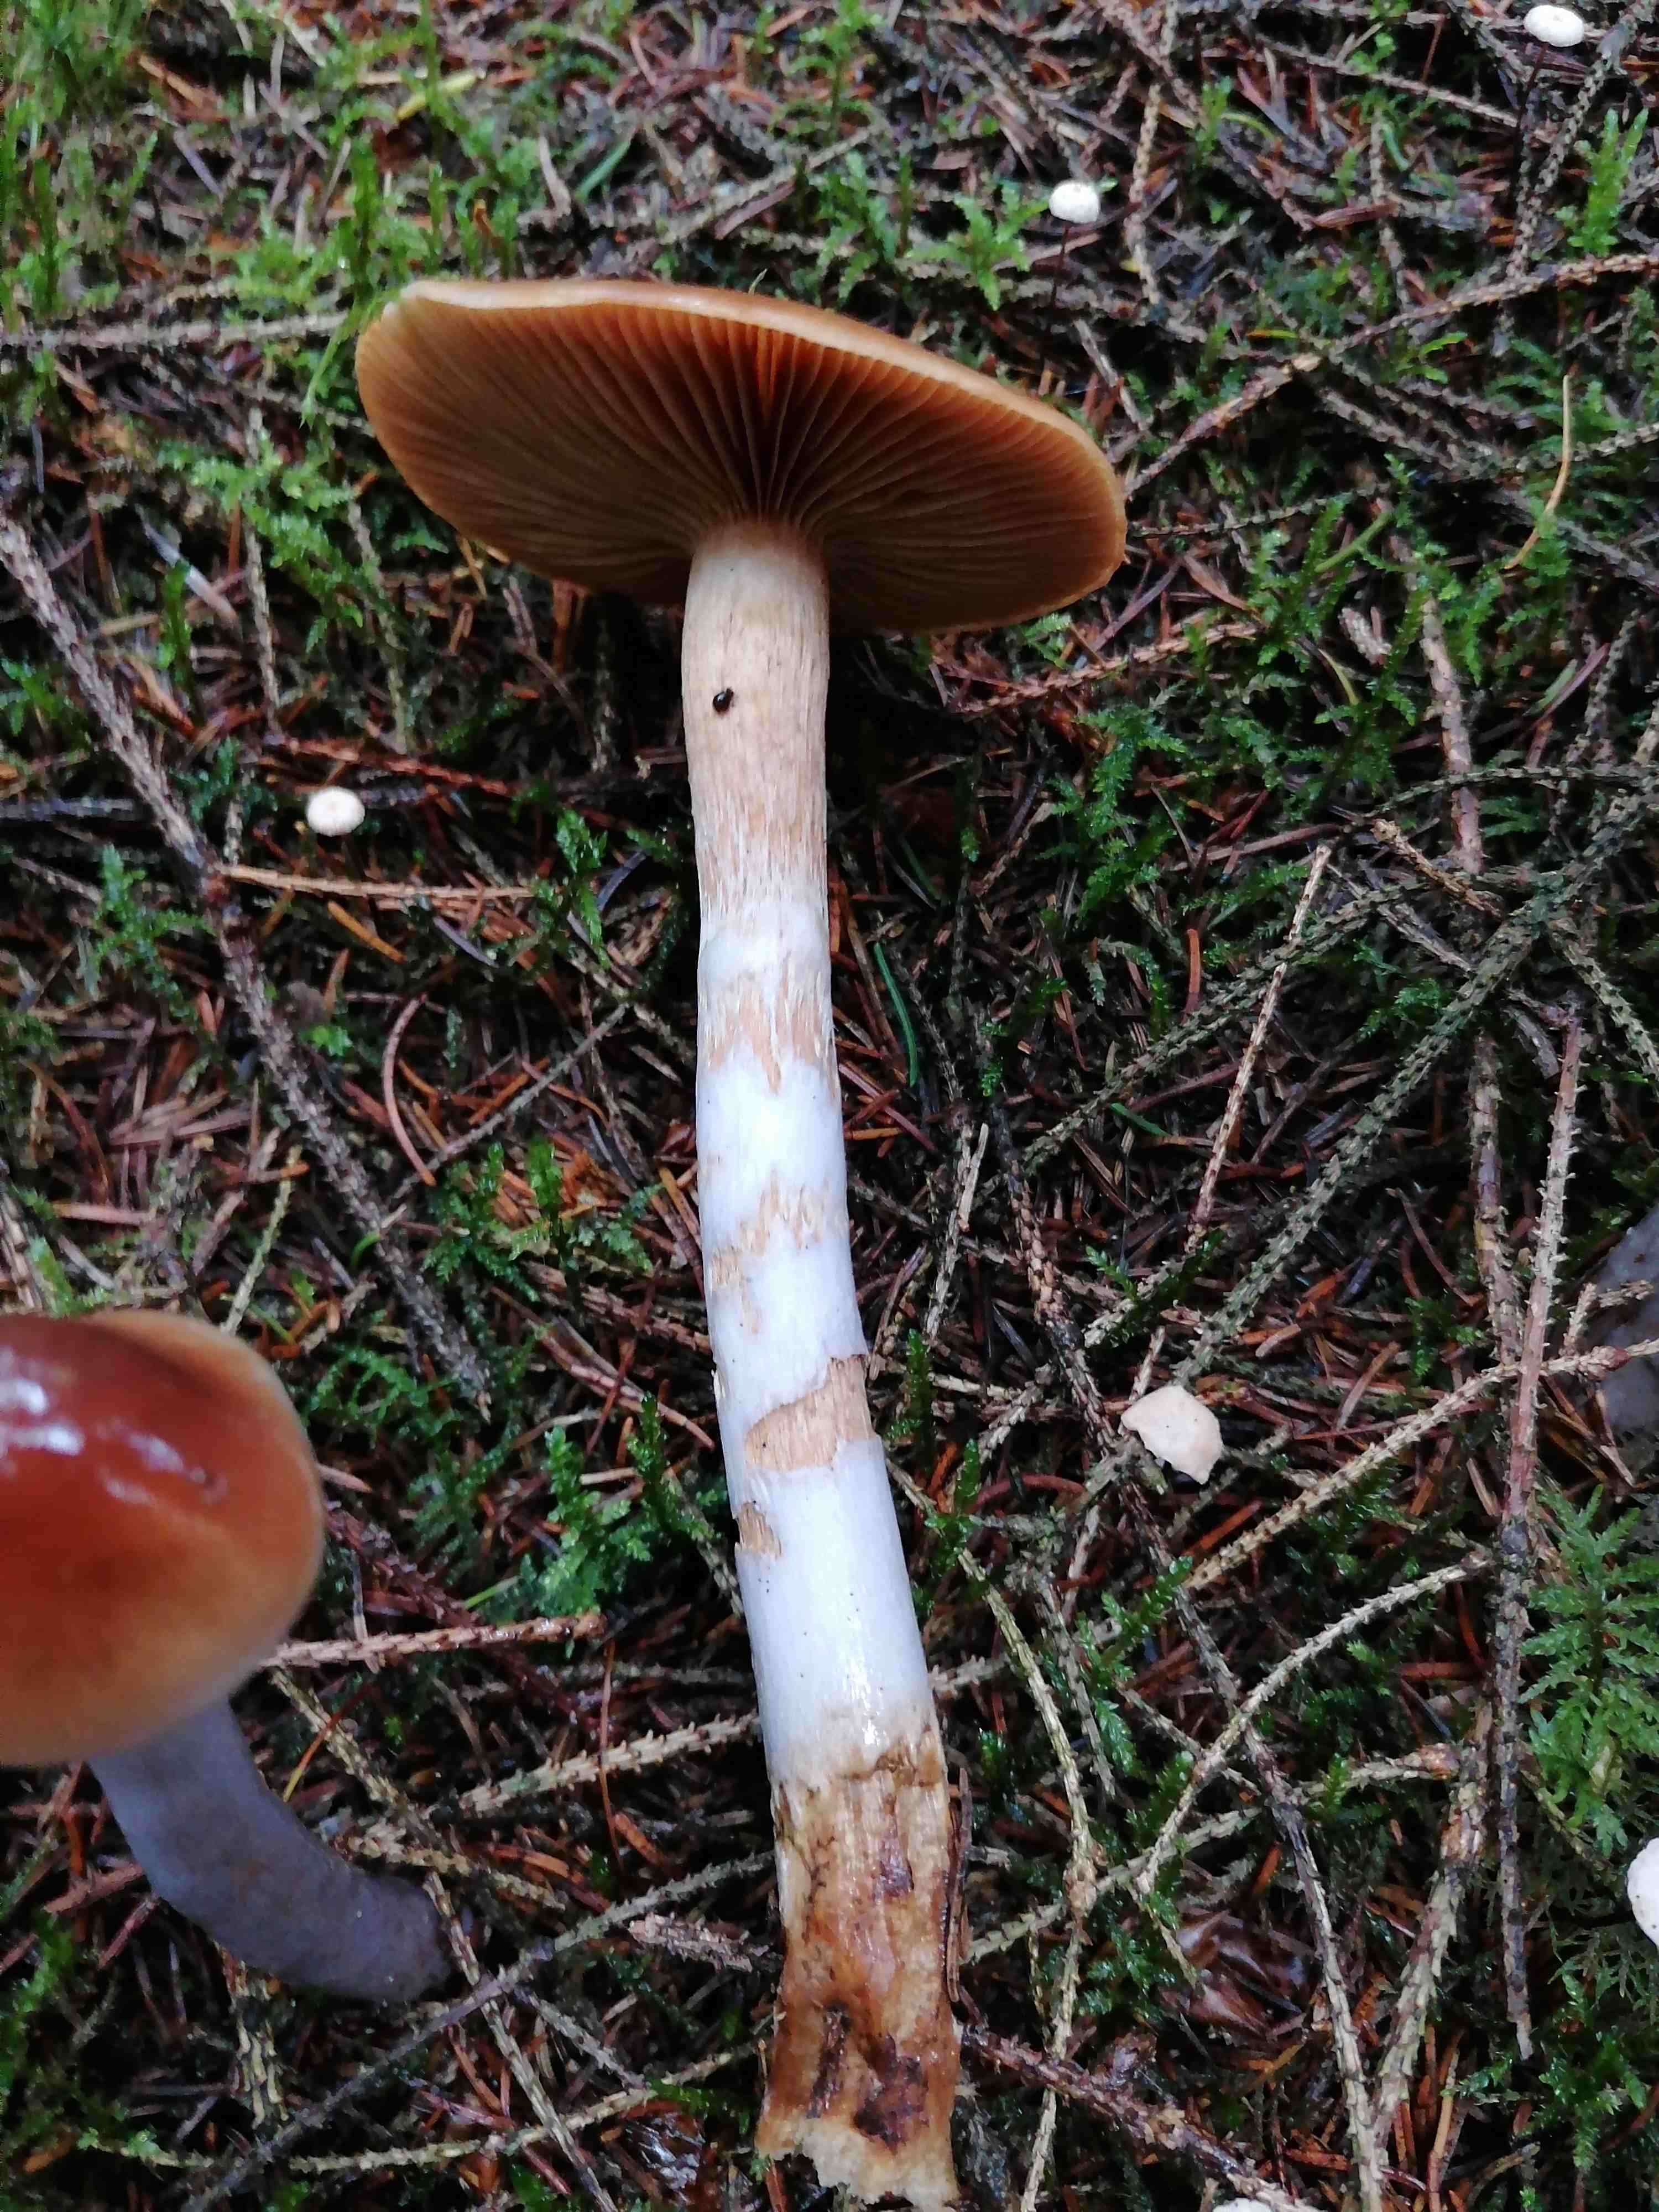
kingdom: Fungi
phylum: Basidiomycota
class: Agaricomycetes
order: Agaricales
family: Cortinariaceae
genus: Cortinarius
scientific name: Cortinarius collinitus
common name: spættet slørhat
